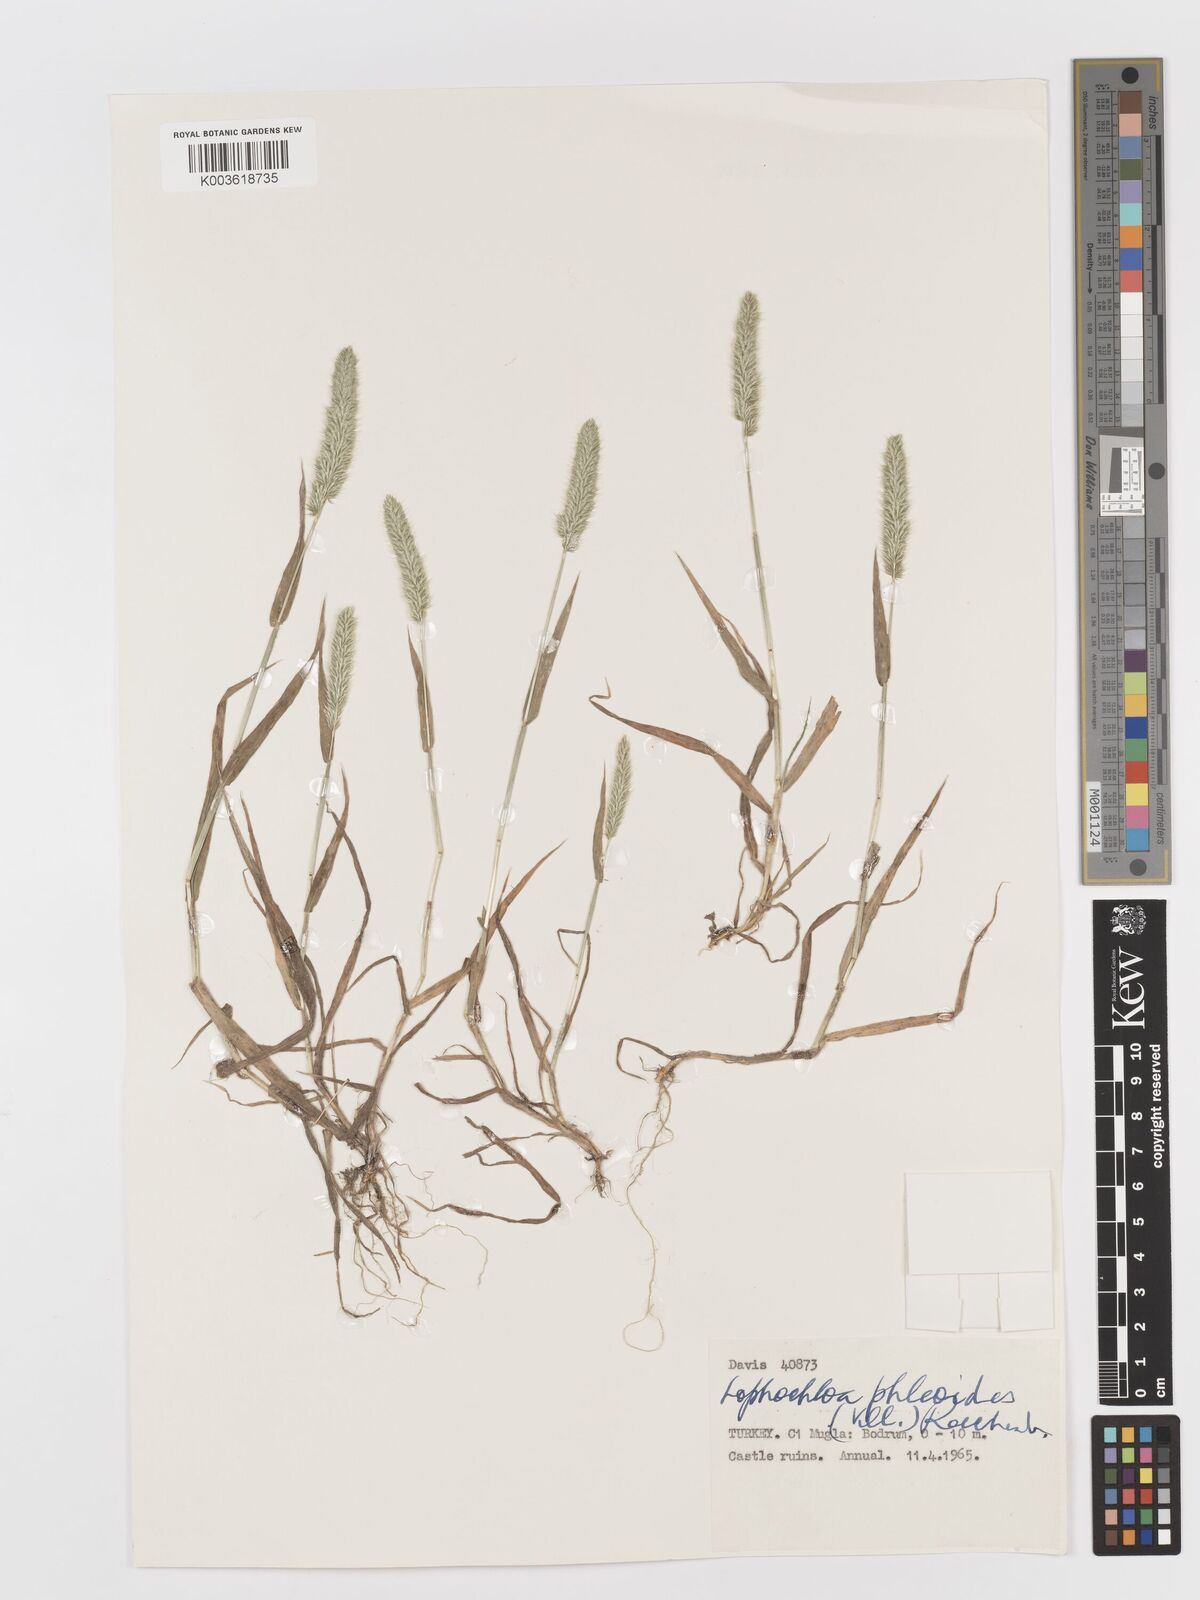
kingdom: Plantae
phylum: Tracheophyta
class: Liliopsida
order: Poales
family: Poaceae
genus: Rostraria
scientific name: Rostraria cristata
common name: Mediterranean hair-grass
